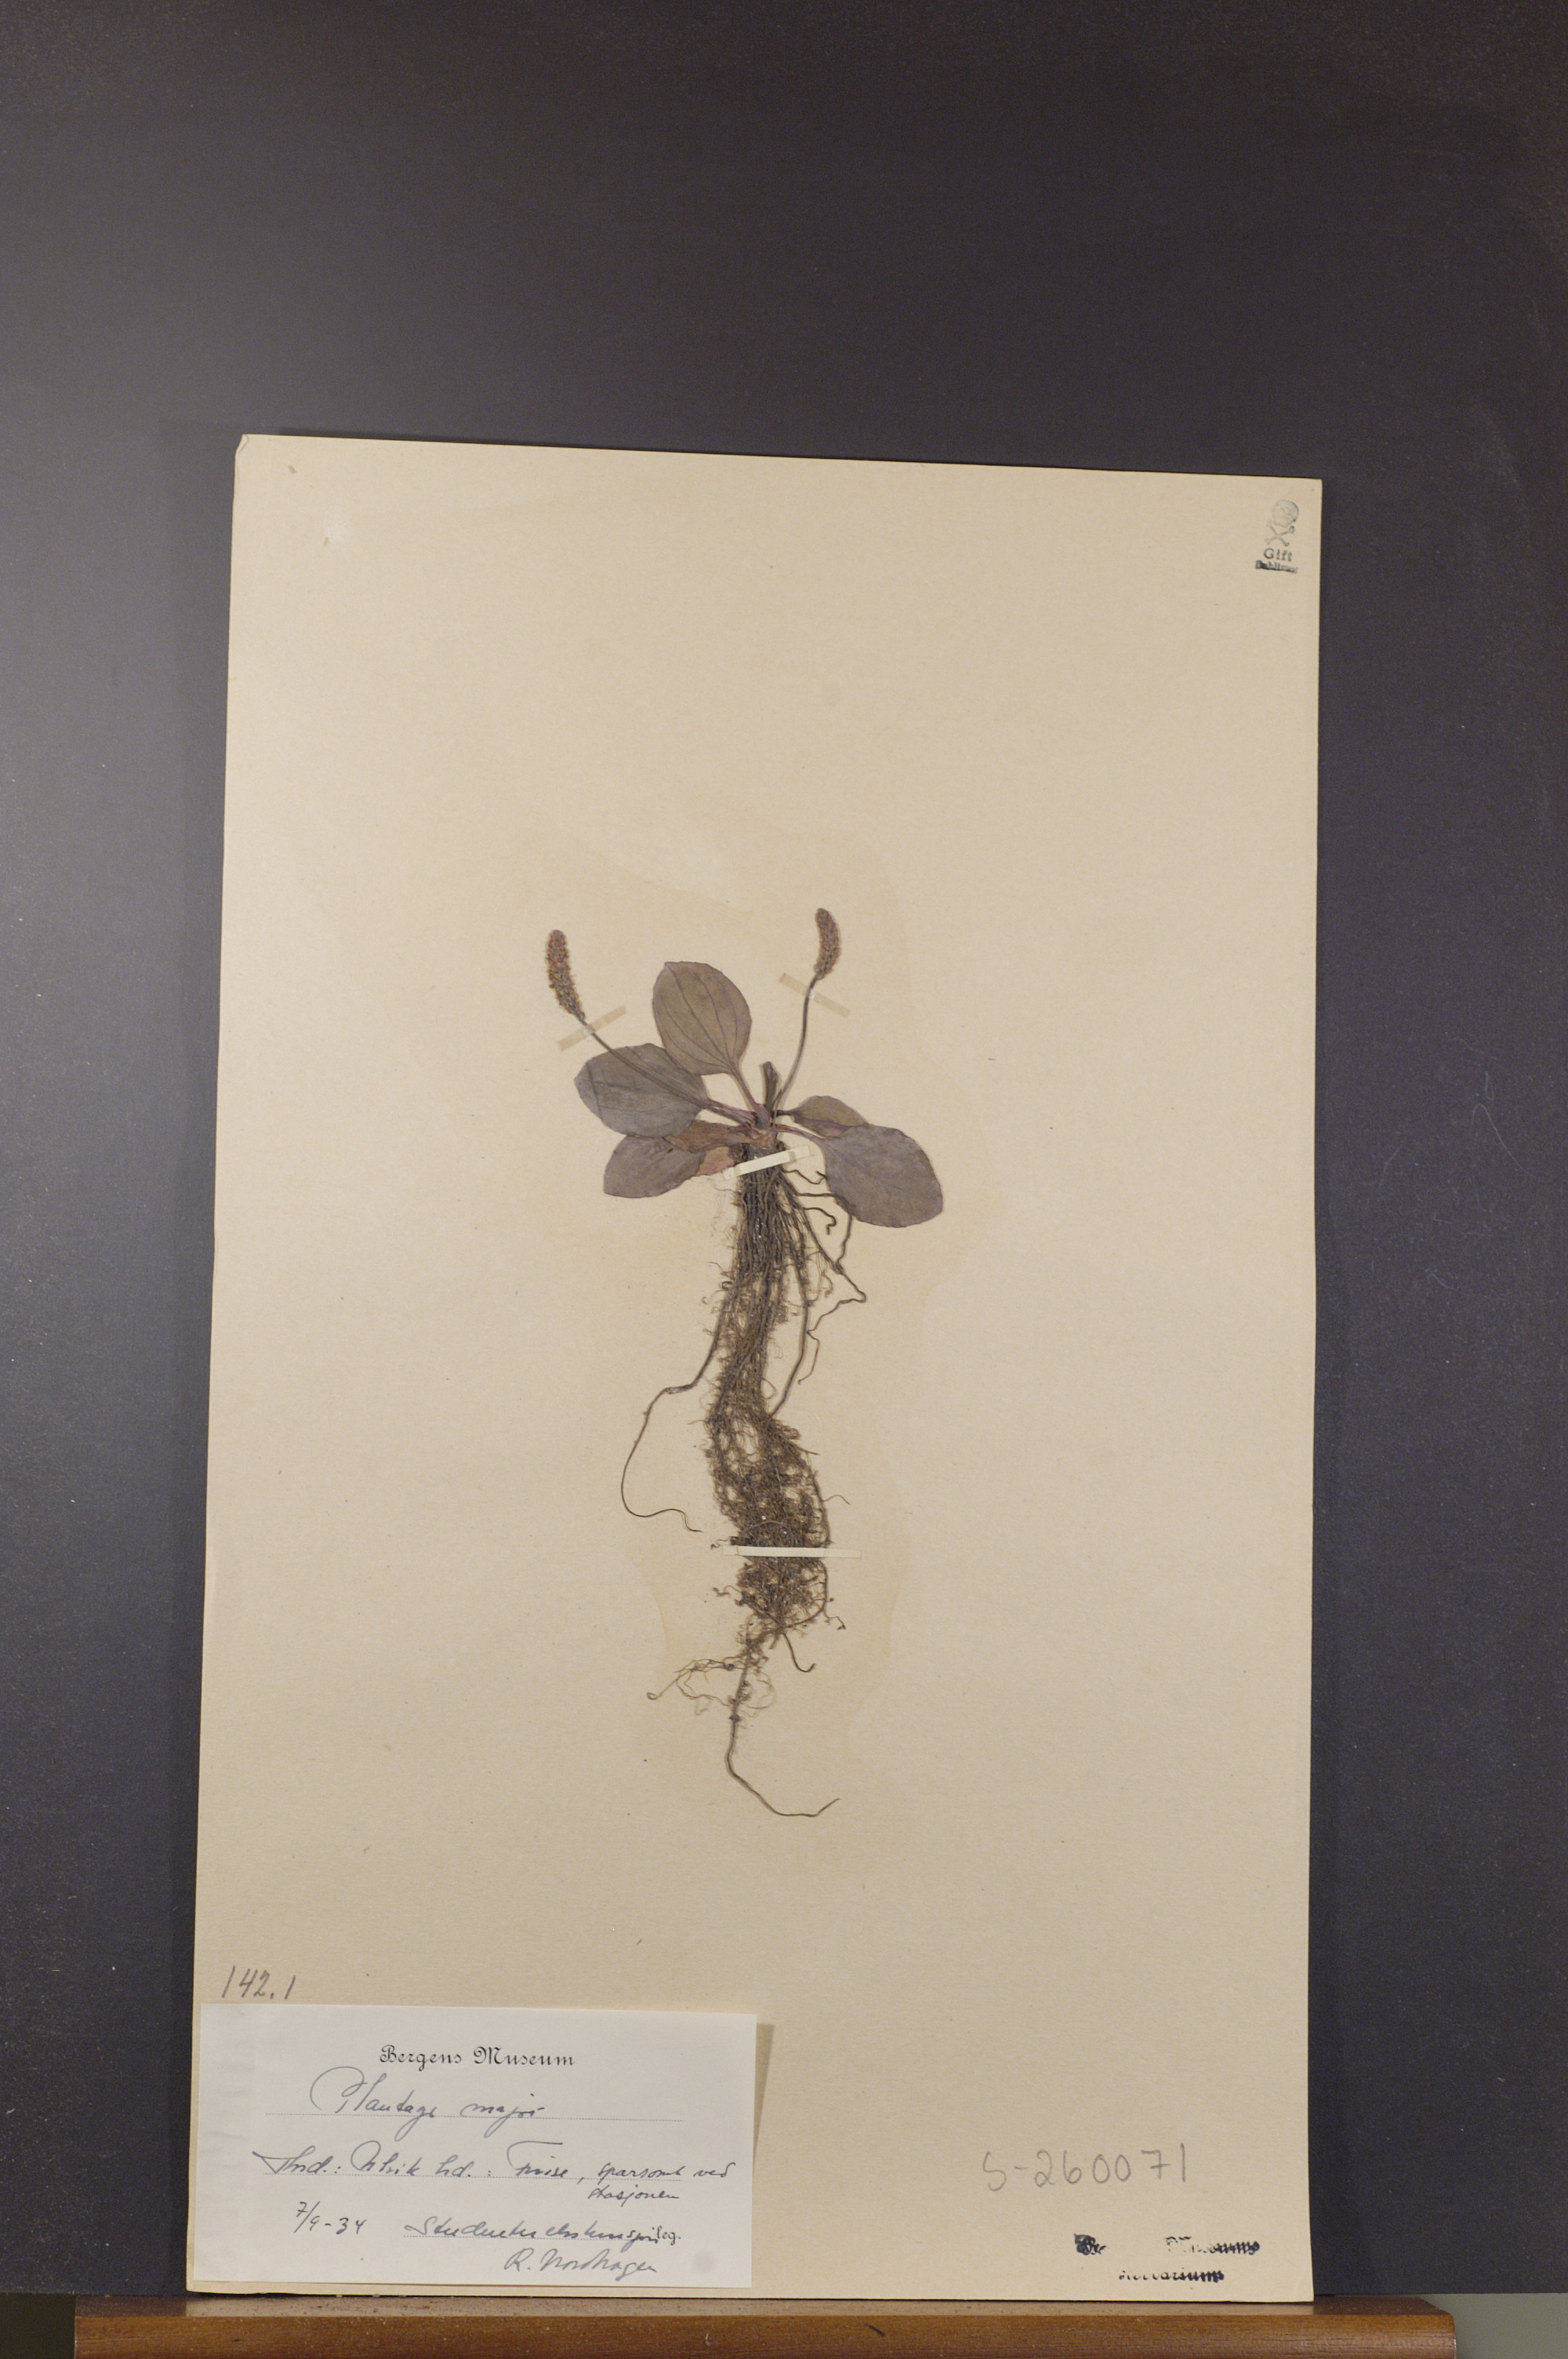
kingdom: Plantae
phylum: Tracheophyta
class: Magnoliopsida
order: Lamiales
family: Plantaginaceae
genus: Plantago
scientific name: Plantago major
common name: Common plantain
